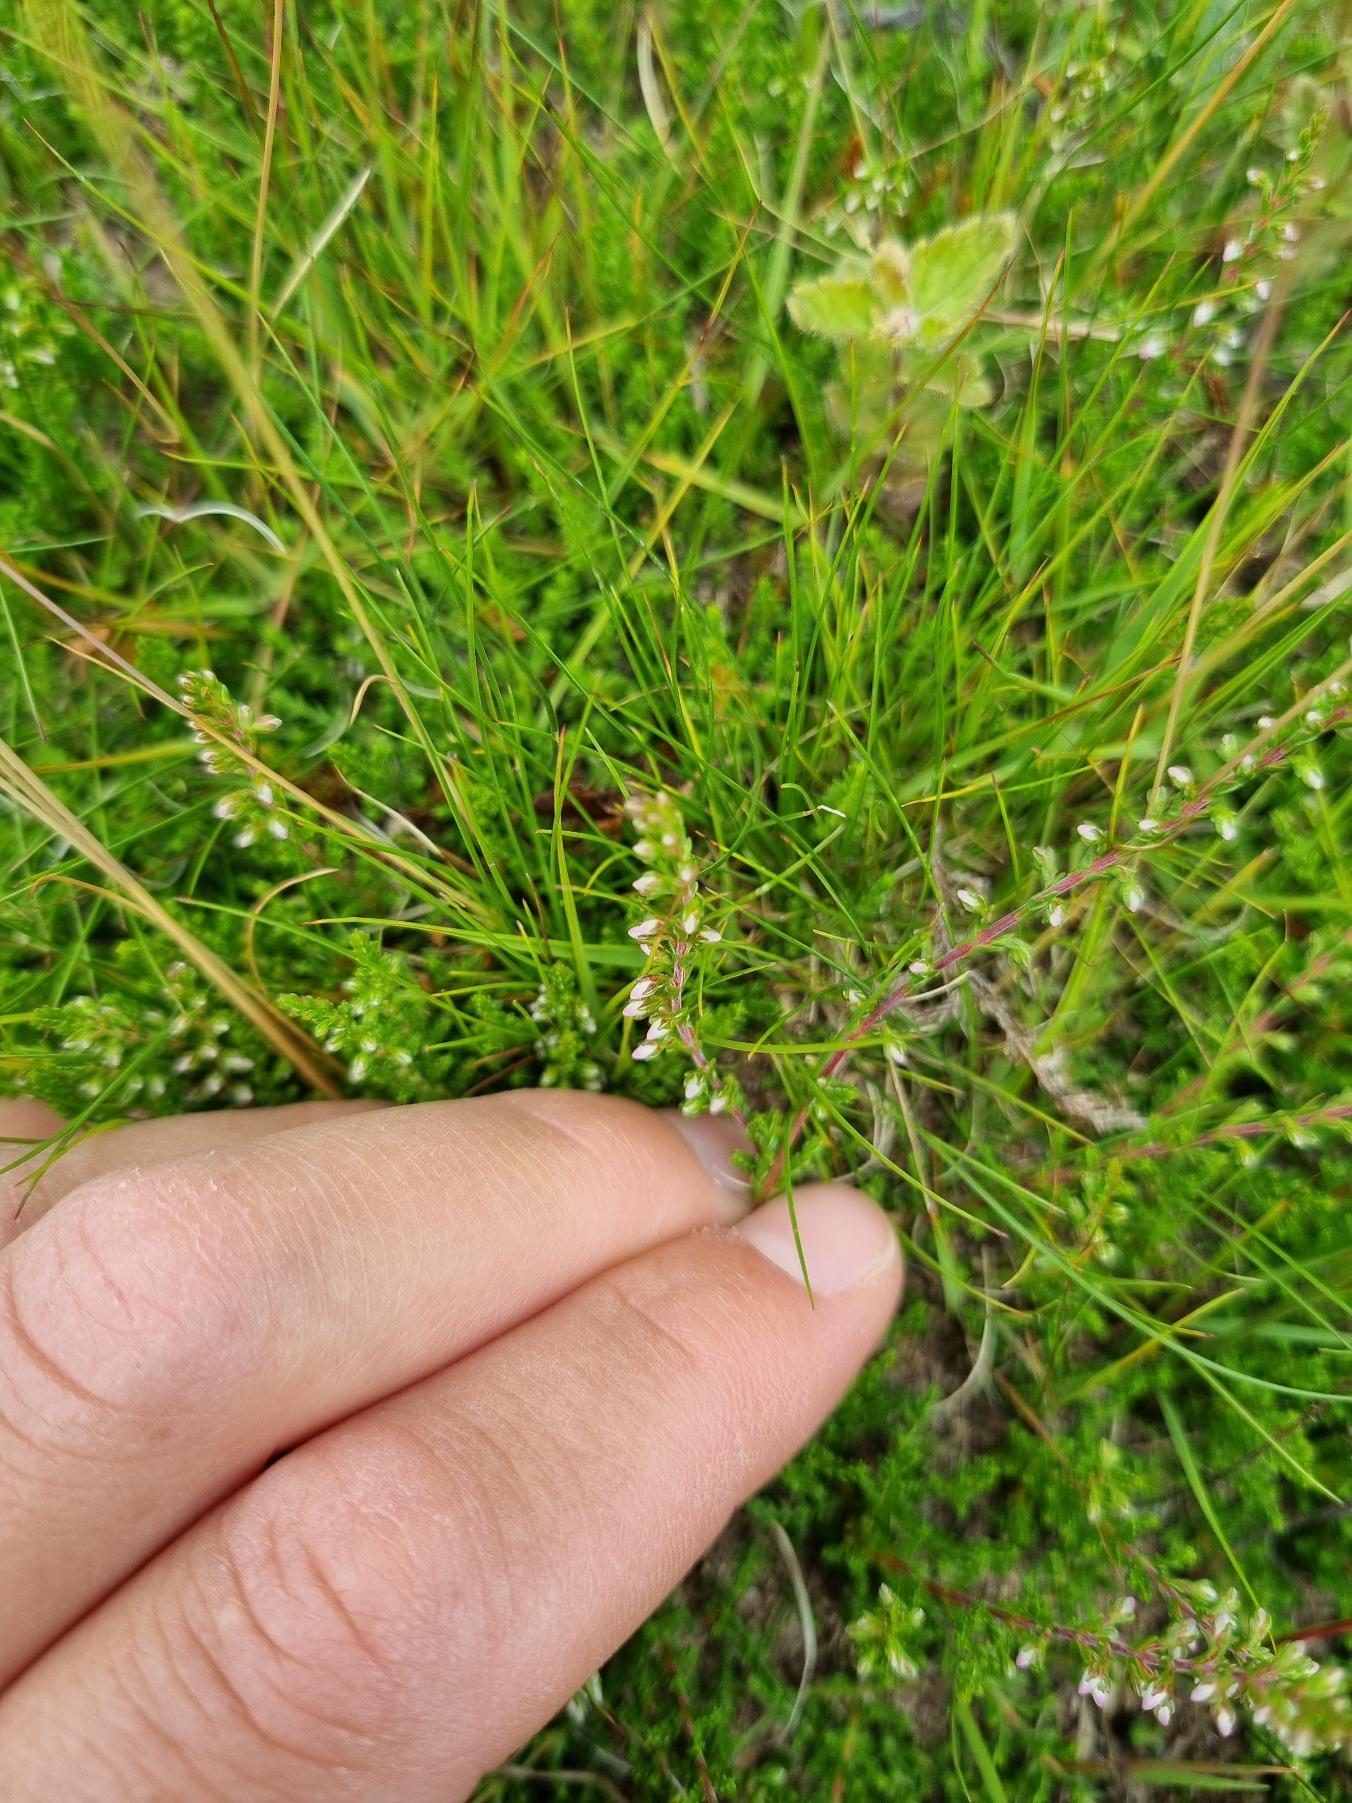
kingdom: Plantae
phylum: Tracheophyta
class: Magnoliopsida
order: Ericales
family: Ericaceae
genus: Calluna
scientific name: Calluna vulgaris
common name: Hedelyng
